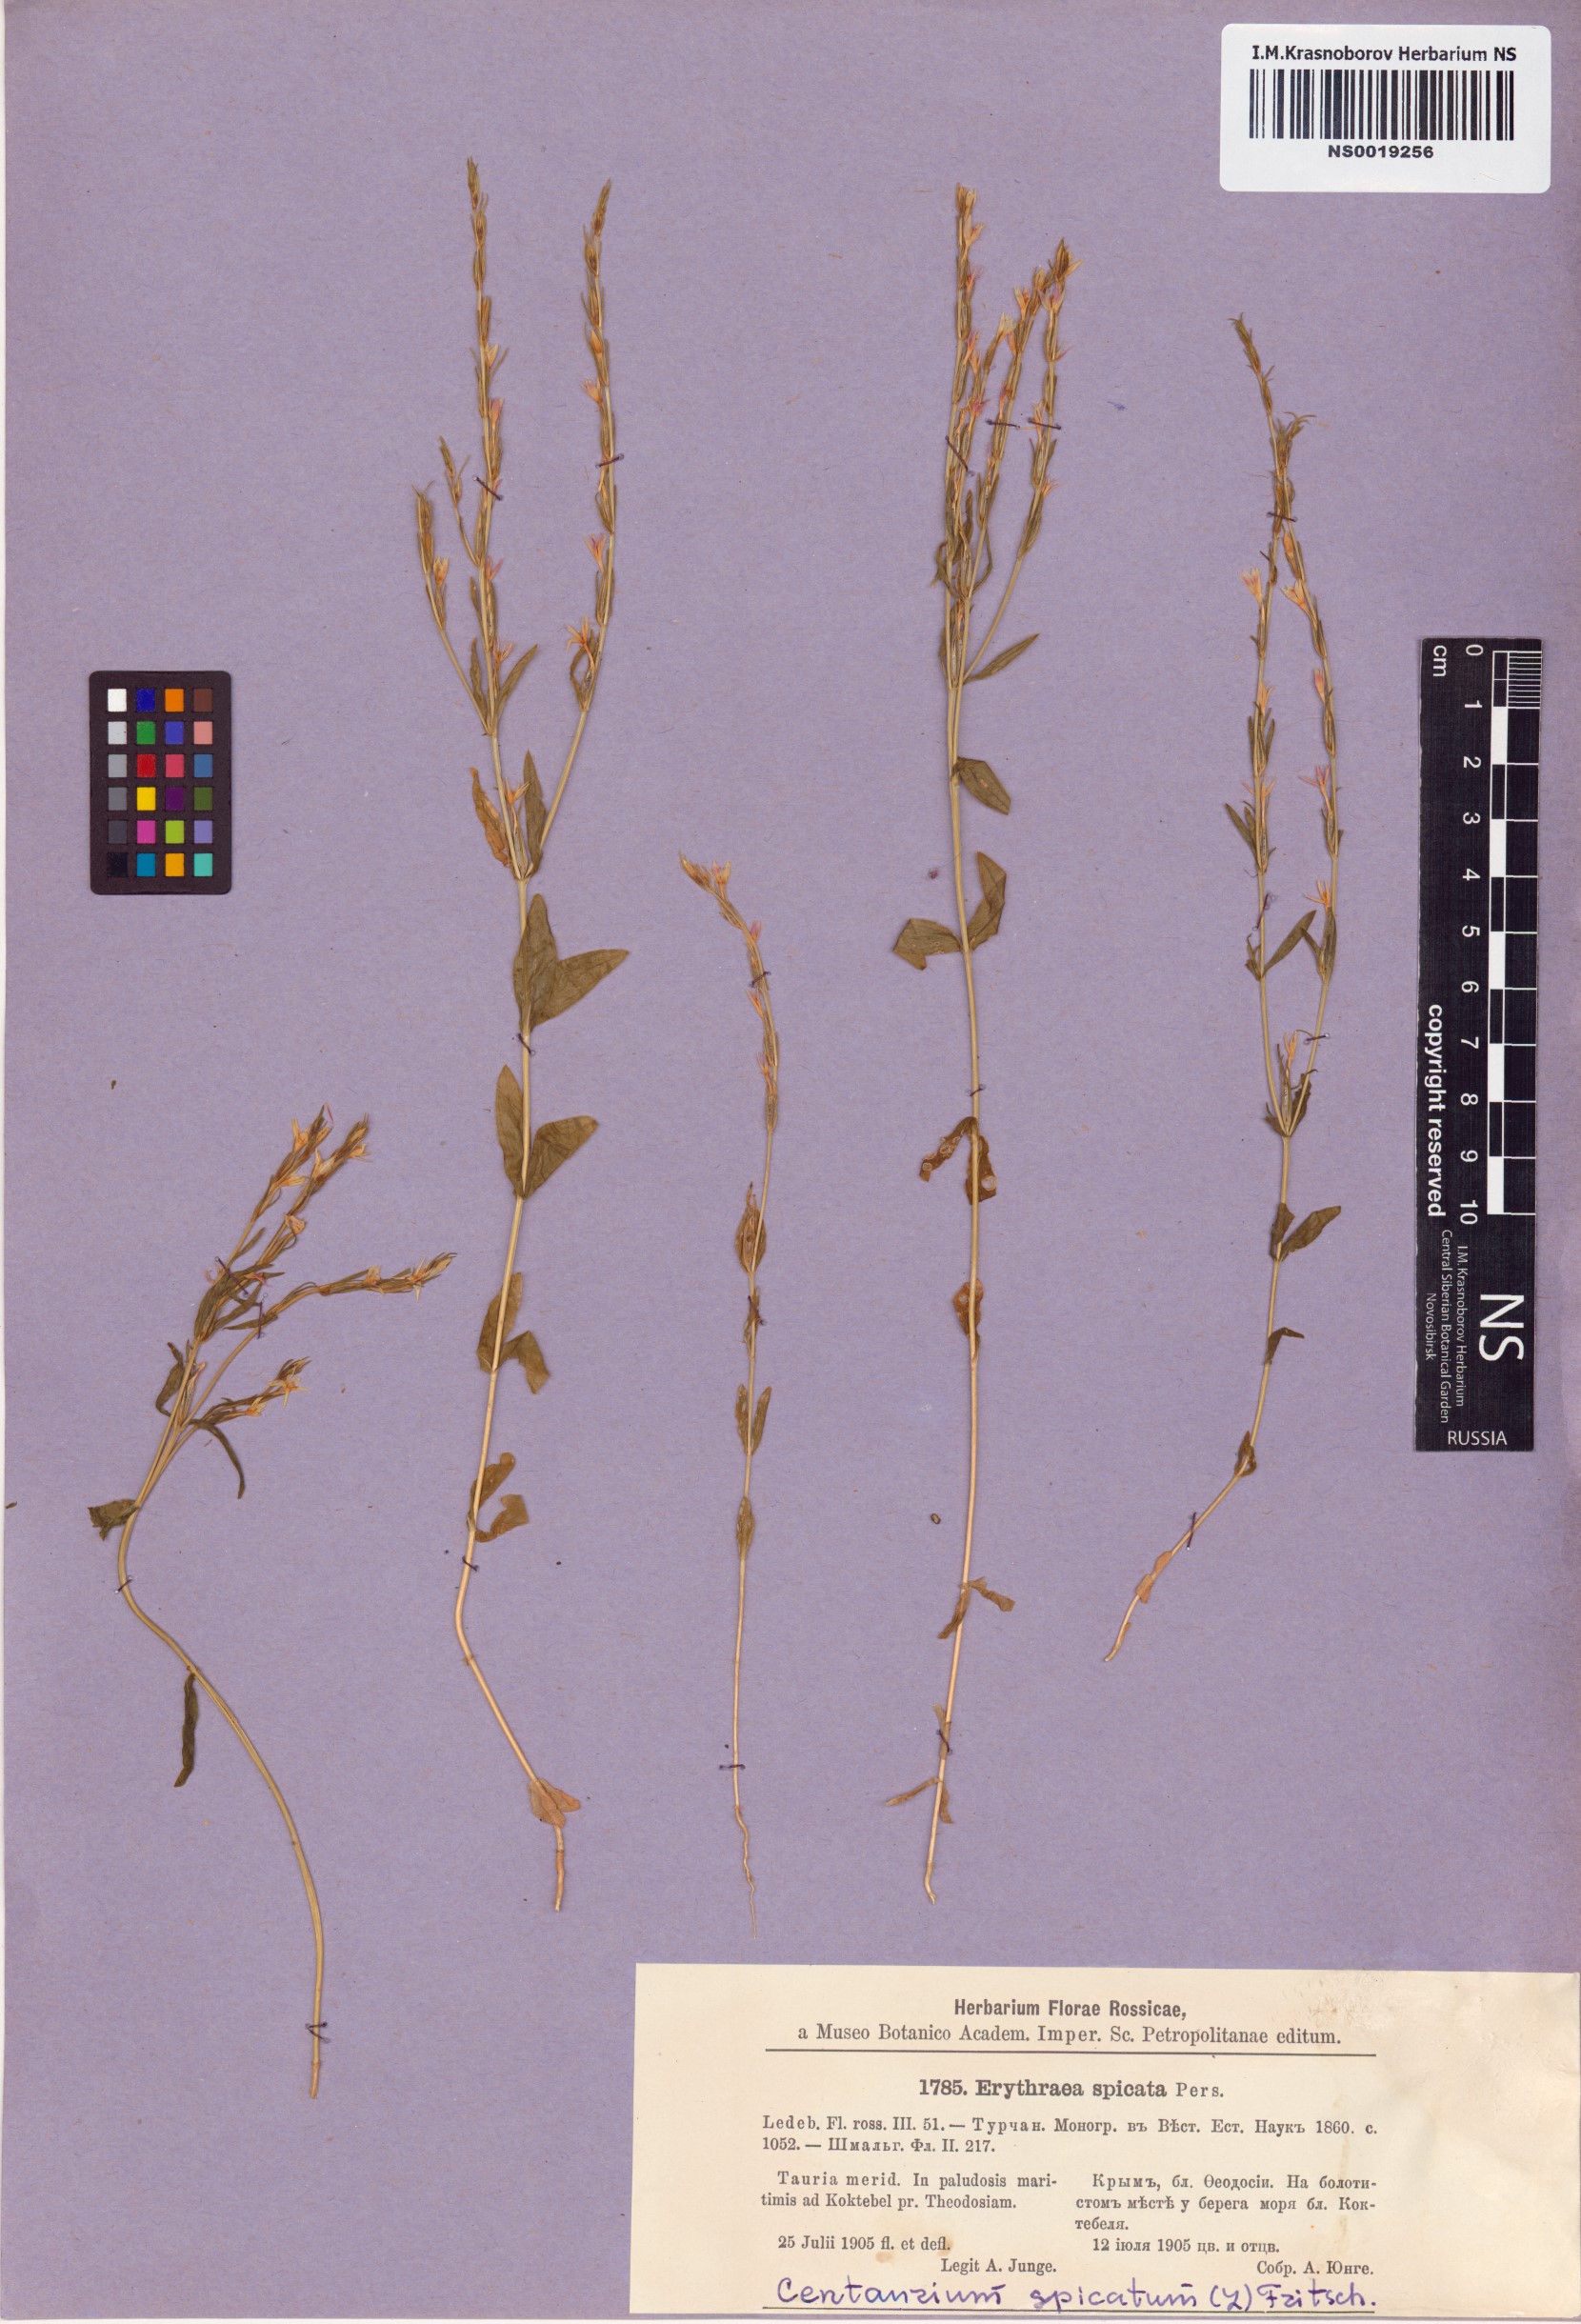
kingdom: Plantae
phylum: Tracheophyta
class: Magnoliopsida
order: Gentianales
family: Gentianaceae
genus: Schenkia
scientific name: Schenkia spicata
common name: Spiked centaury
